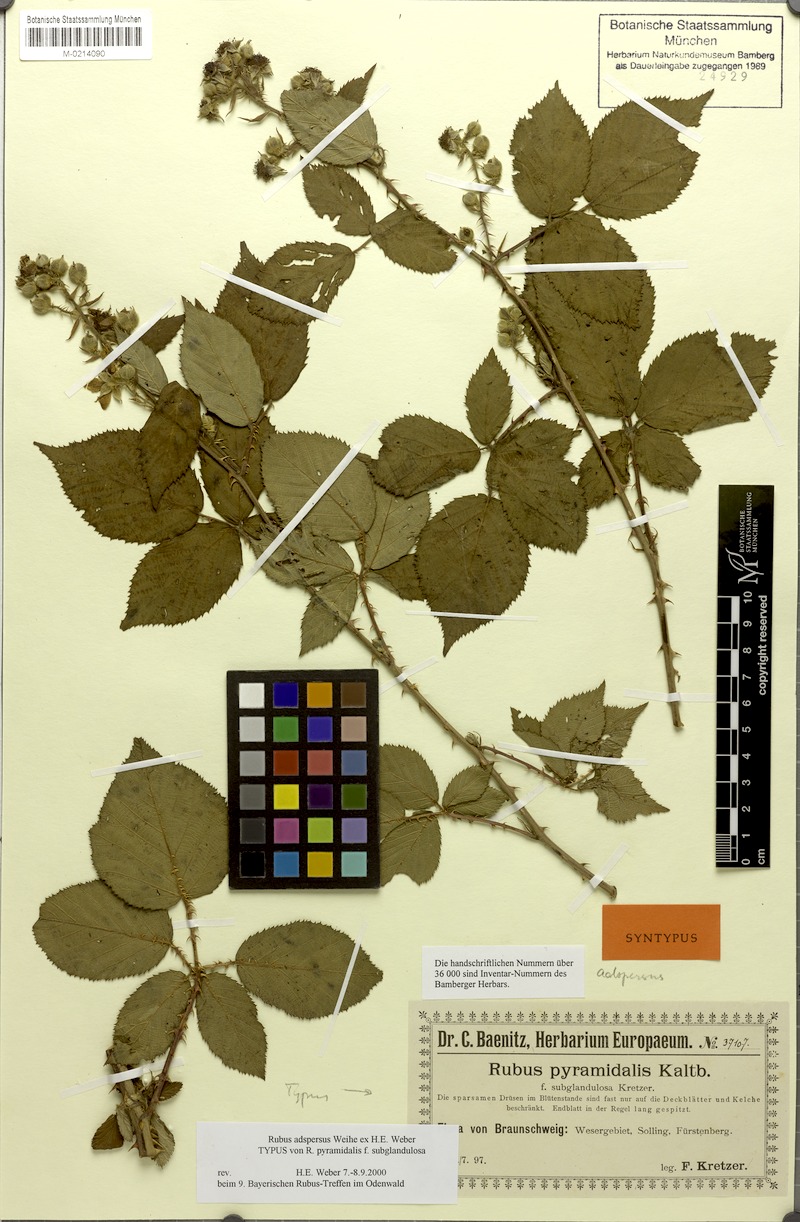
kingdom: Plantae
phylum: Tracheophyta
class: Magnoliopsida
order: Rosales
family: Rosaceae
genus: Rubus
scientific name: Rubus adspersus
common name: Hornbeam-leaved bramble
